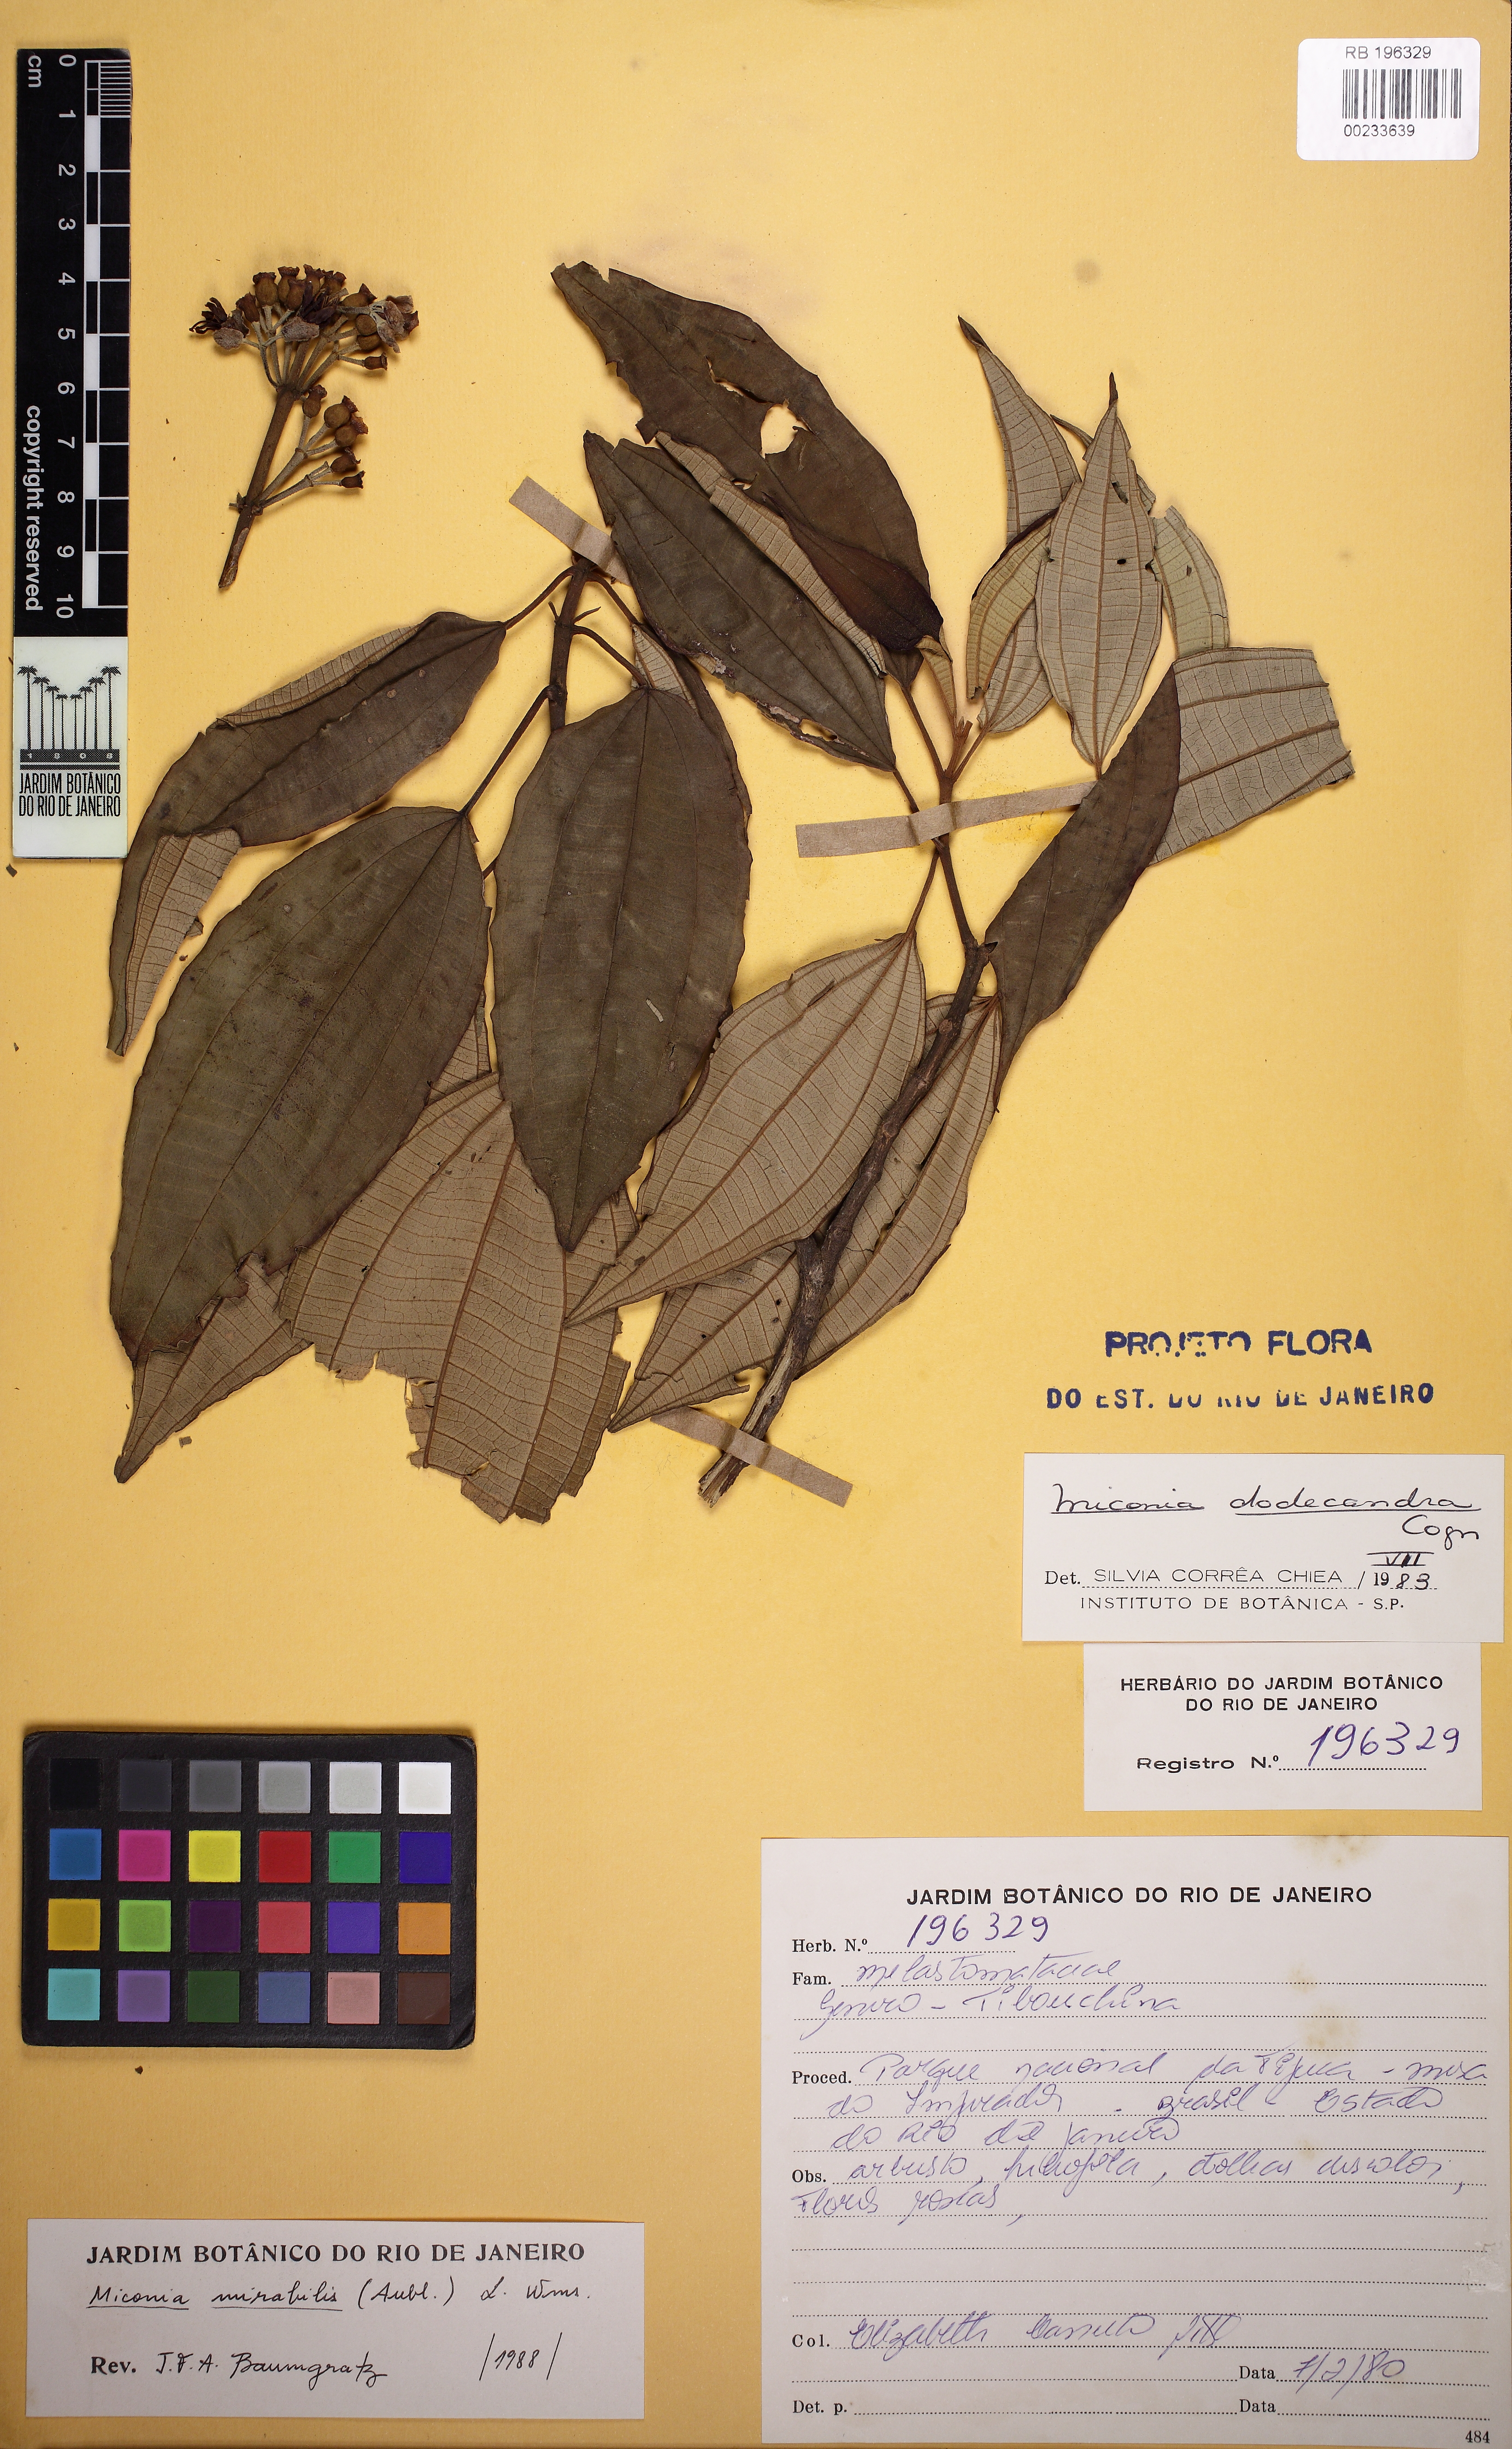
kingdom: Plantae
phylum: Tracheophyta
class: Magnoliopsida
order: Myrtales
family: Melastomataceae
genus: Miconia
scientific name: Miconia mirabilis
